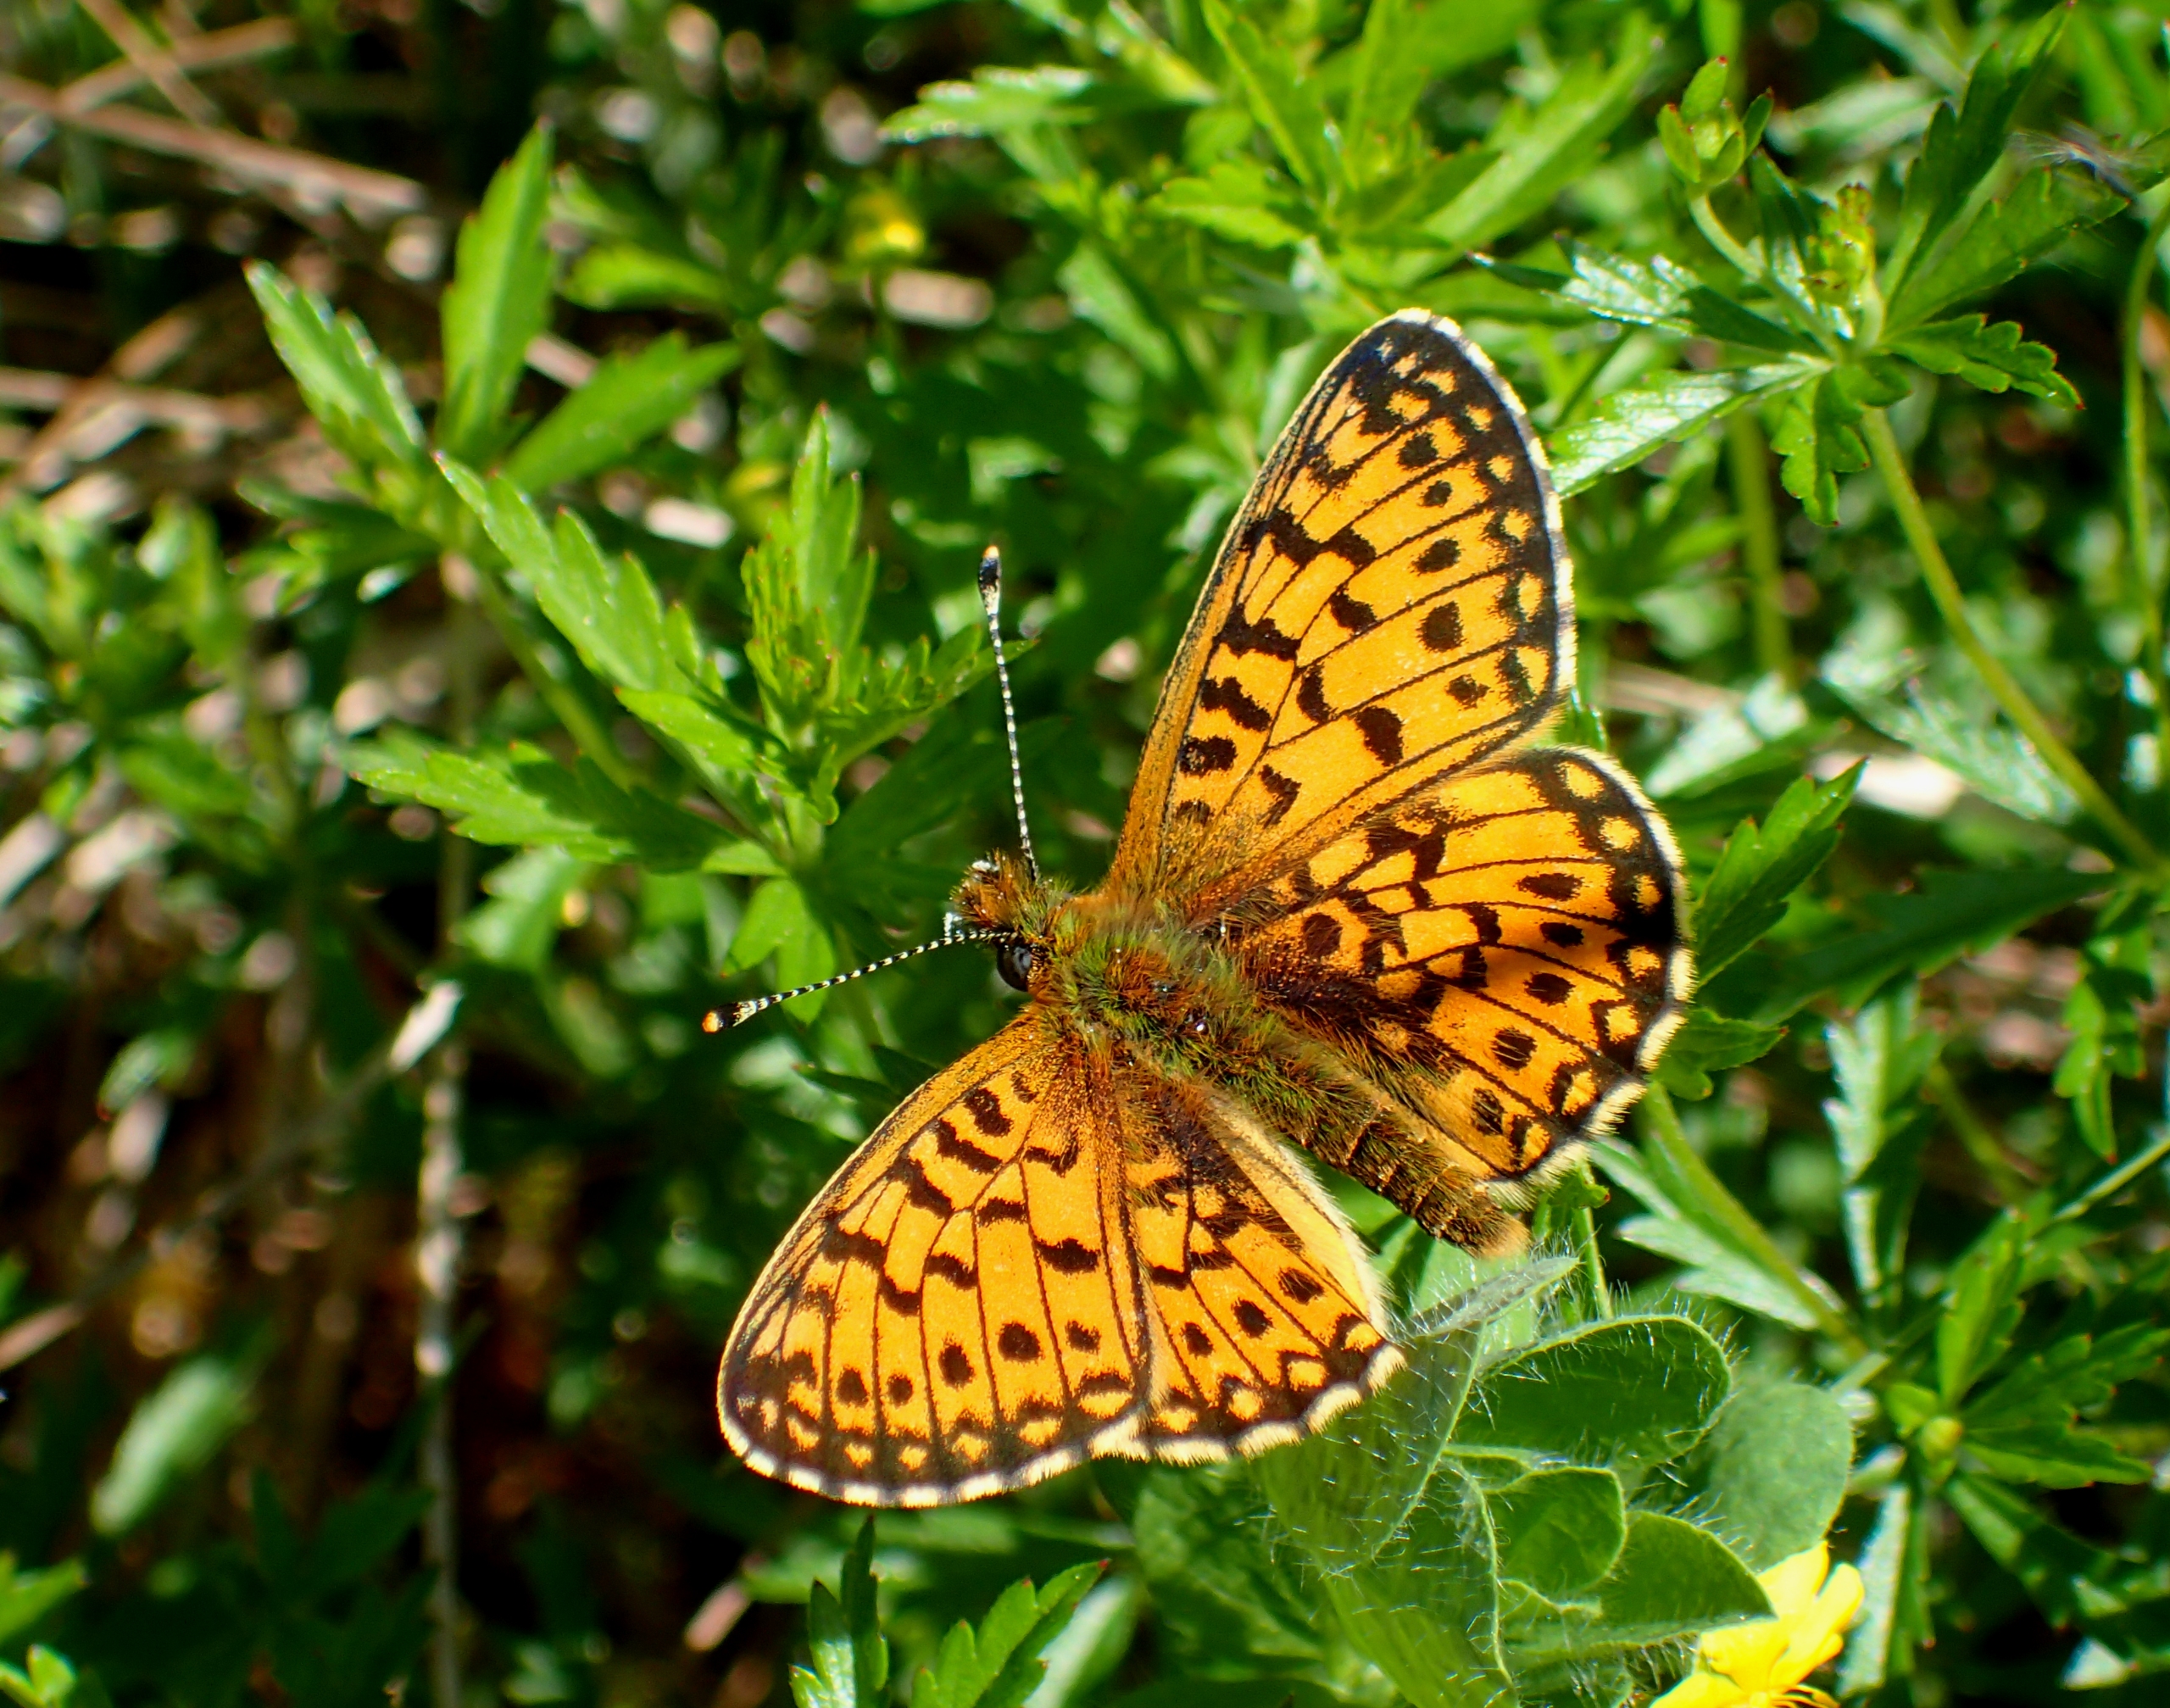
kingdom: Animalia
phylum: Arthropoda
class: Insecta
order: Lepidoptera
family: Nymphalidae
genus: Boloria
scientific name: Boloria selene
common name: Brunlig perlemorsommerfugl
